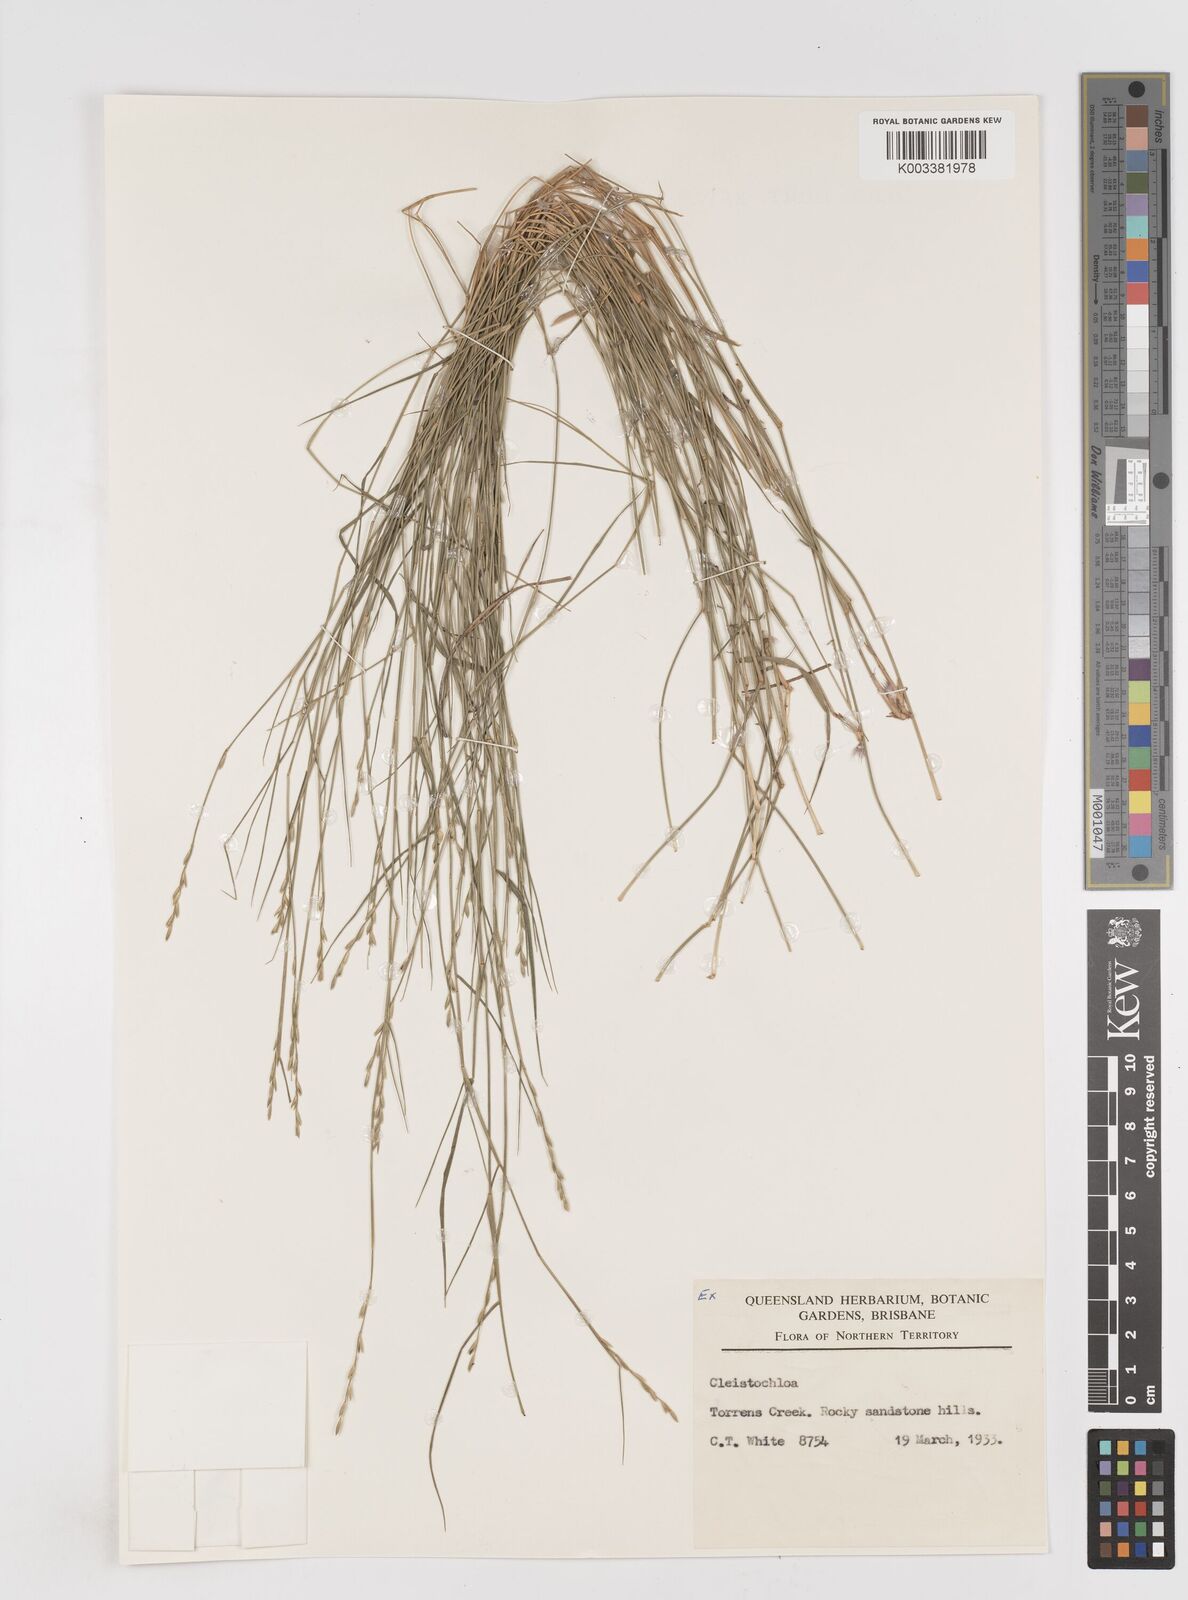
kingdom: Plantae
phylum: Tracheophyta
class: Liliopsida
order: Poales
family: Poaceae
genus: Cleistochloa
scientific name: Cleistochloa
